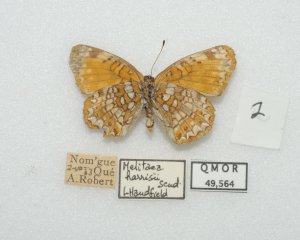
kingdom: Animalia
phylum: Arthropoda
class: Insecta
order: Lepidoptera
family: Nymphalidae
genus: Chlosyne
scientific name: Chlosyne harrisii
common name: Harris's Checkerspot
